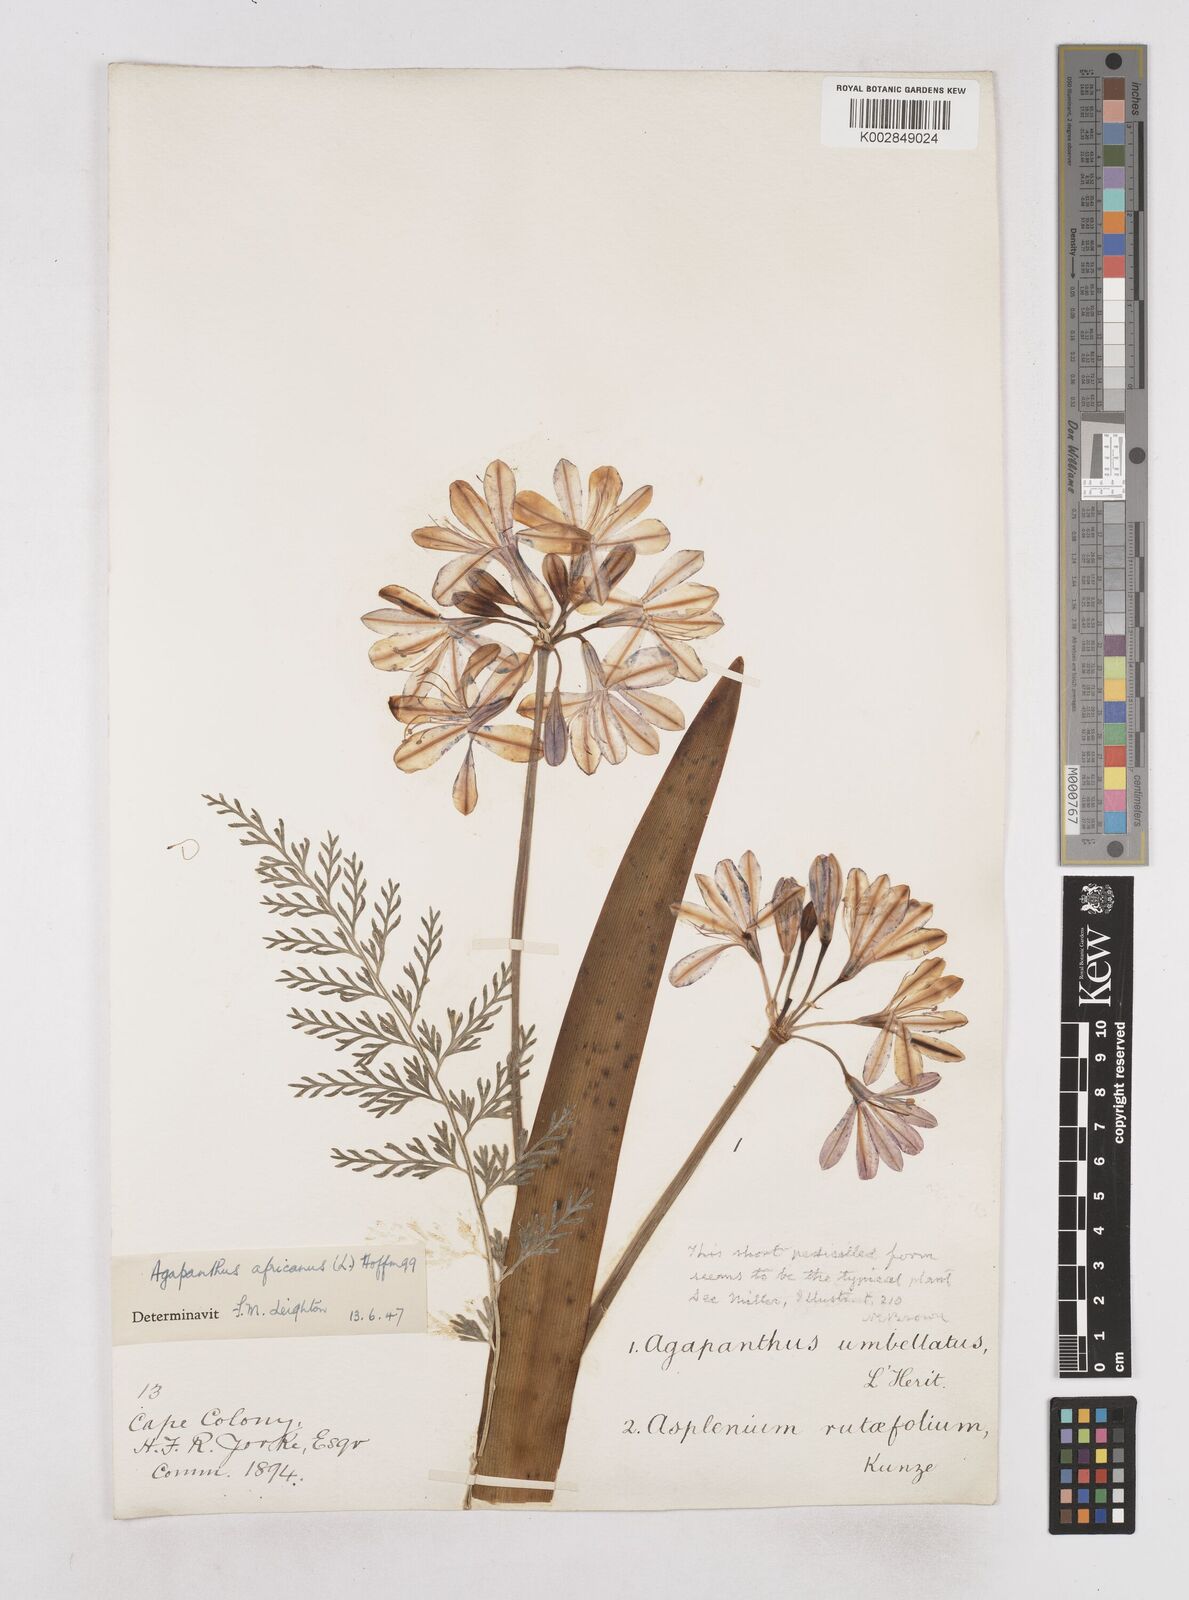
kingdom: Plantae
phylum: Tracheophyta
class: Liliopsida
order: Asparagales
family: Amaryllidaceae
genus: Agapanthus
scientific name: Agapanthus africanus
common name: Lily-of-the-nile
